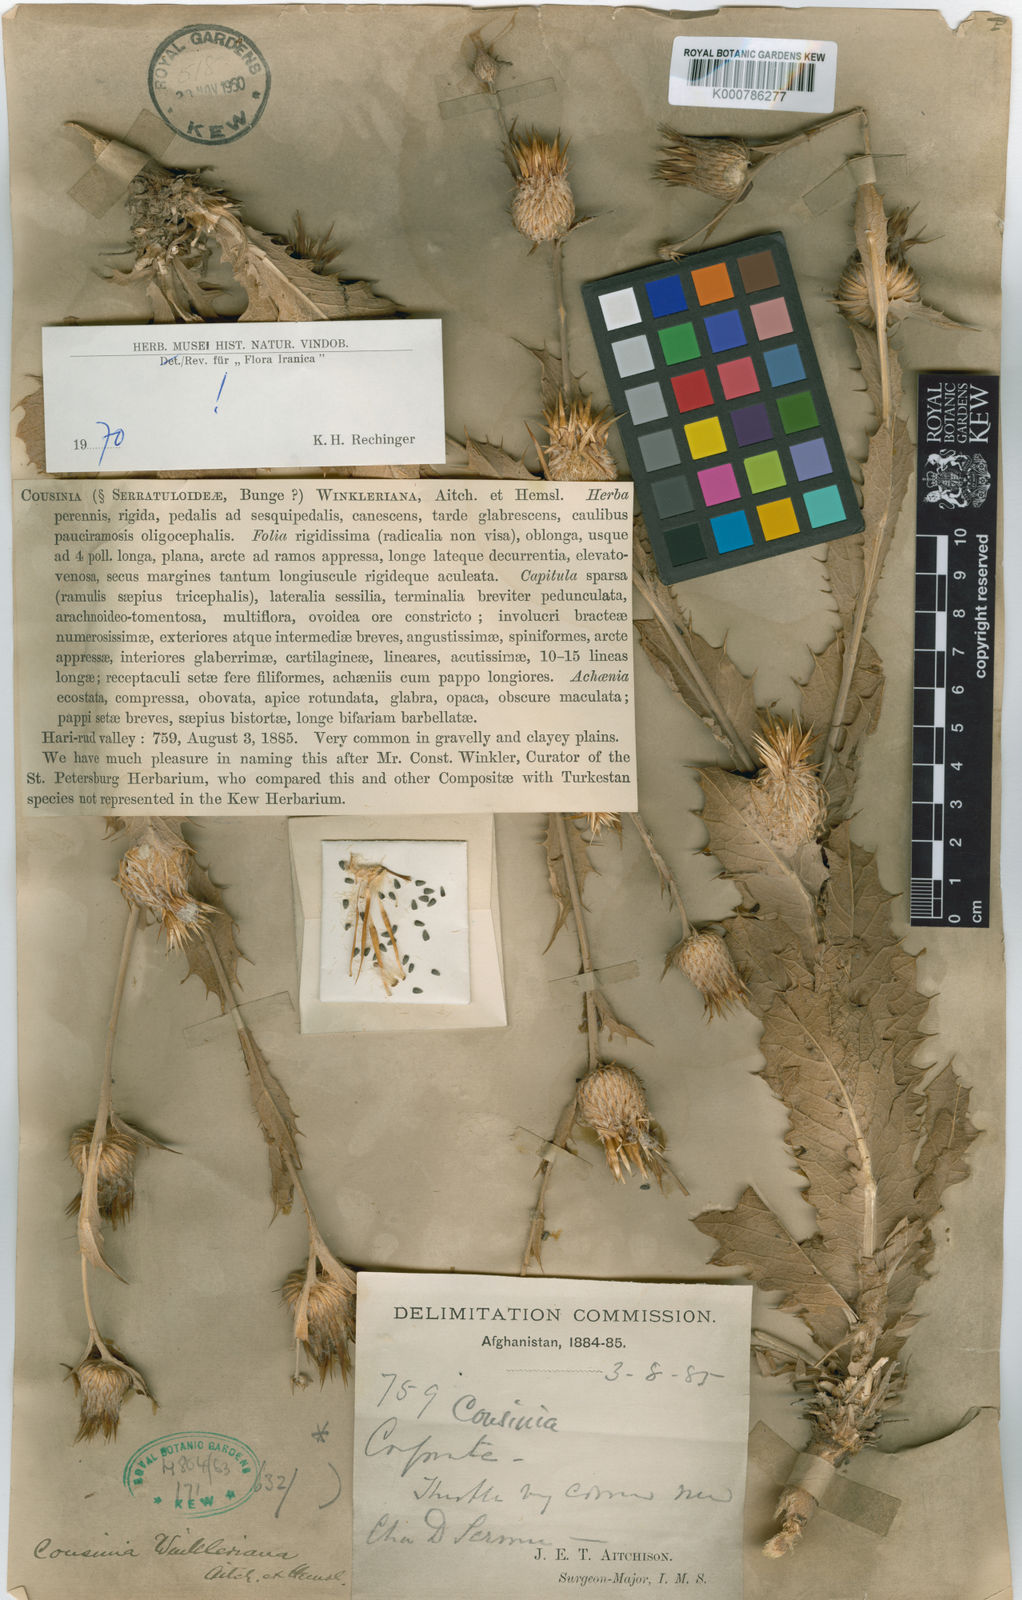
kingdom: Plantae
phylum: Tracheophyta
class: Magnoliopsida
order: Asterales
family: Asteraceae
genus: Cousinia
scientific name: Cousinia winkleriana
